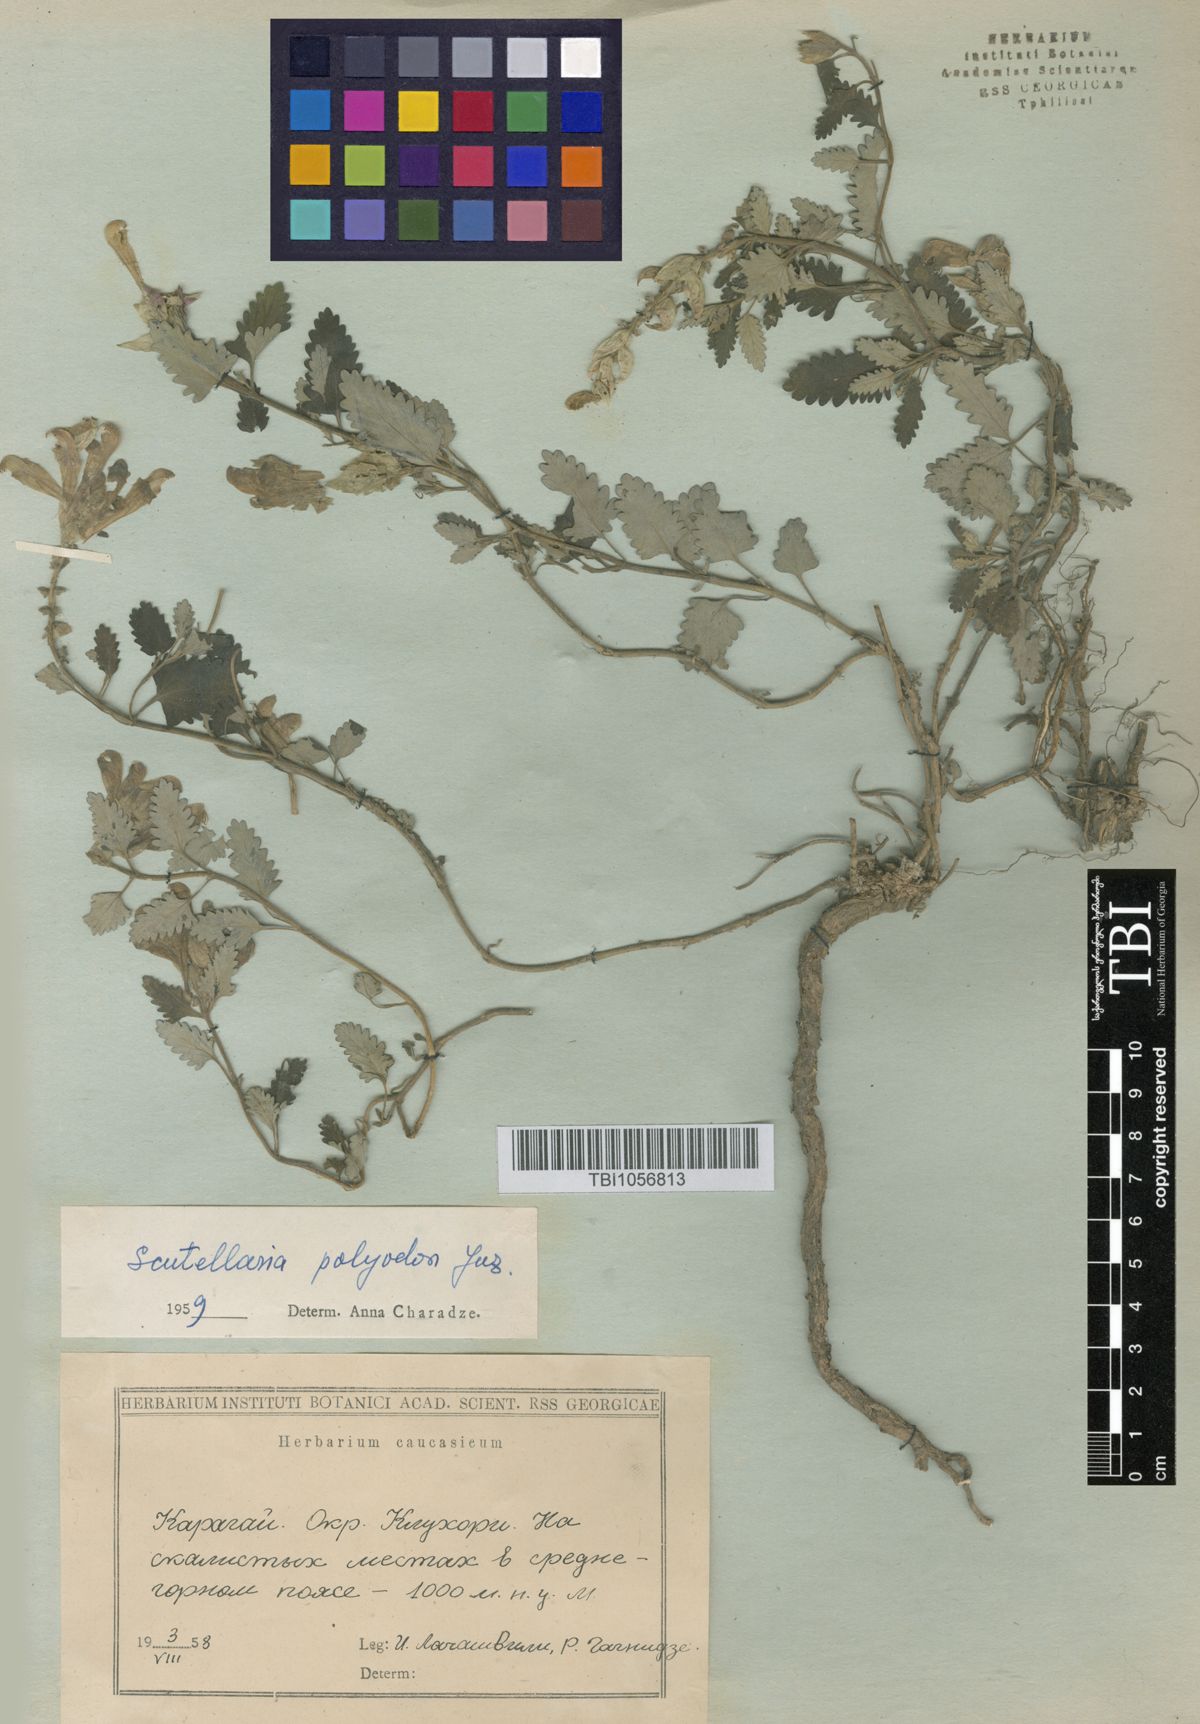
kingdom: Plantae
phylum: Tracheophyta
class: Magnoliopsida
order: Lamiales
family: Lamiaceae
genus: Scutellaria
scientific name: Scutellaria caucasica
